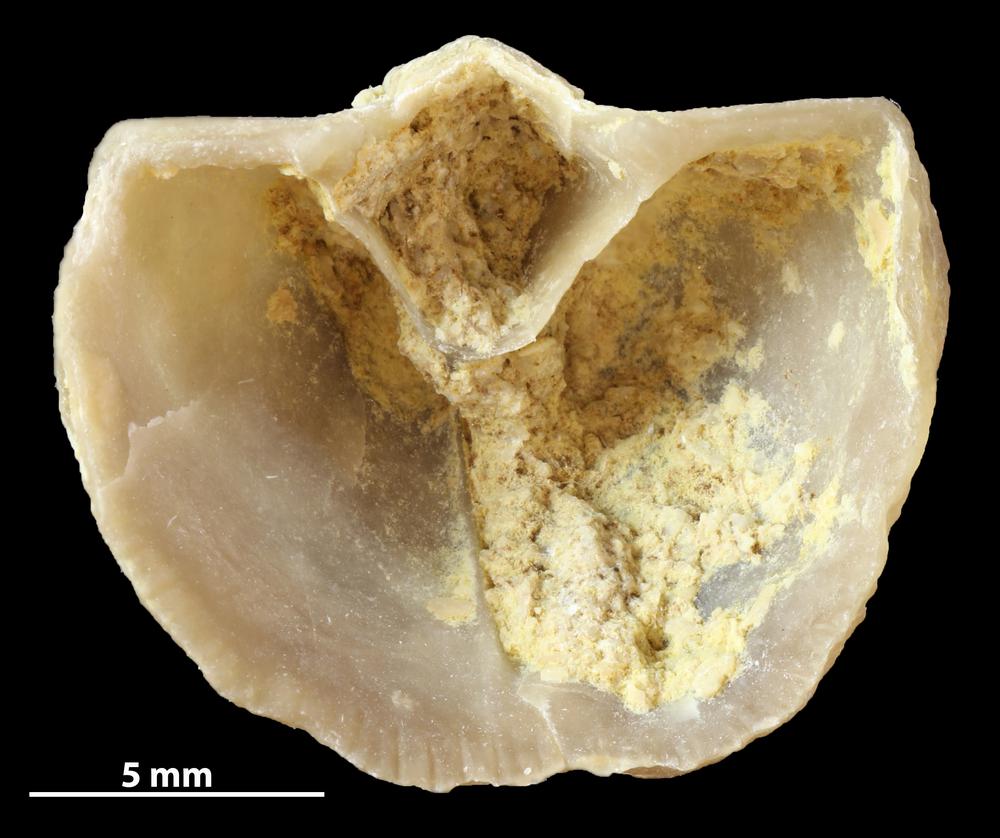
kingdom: Animalia
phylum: Brachiopoda
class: Rhynchonellata
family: Clitambonitidae
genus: Vellamo
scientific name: Vellamo oandoensis
